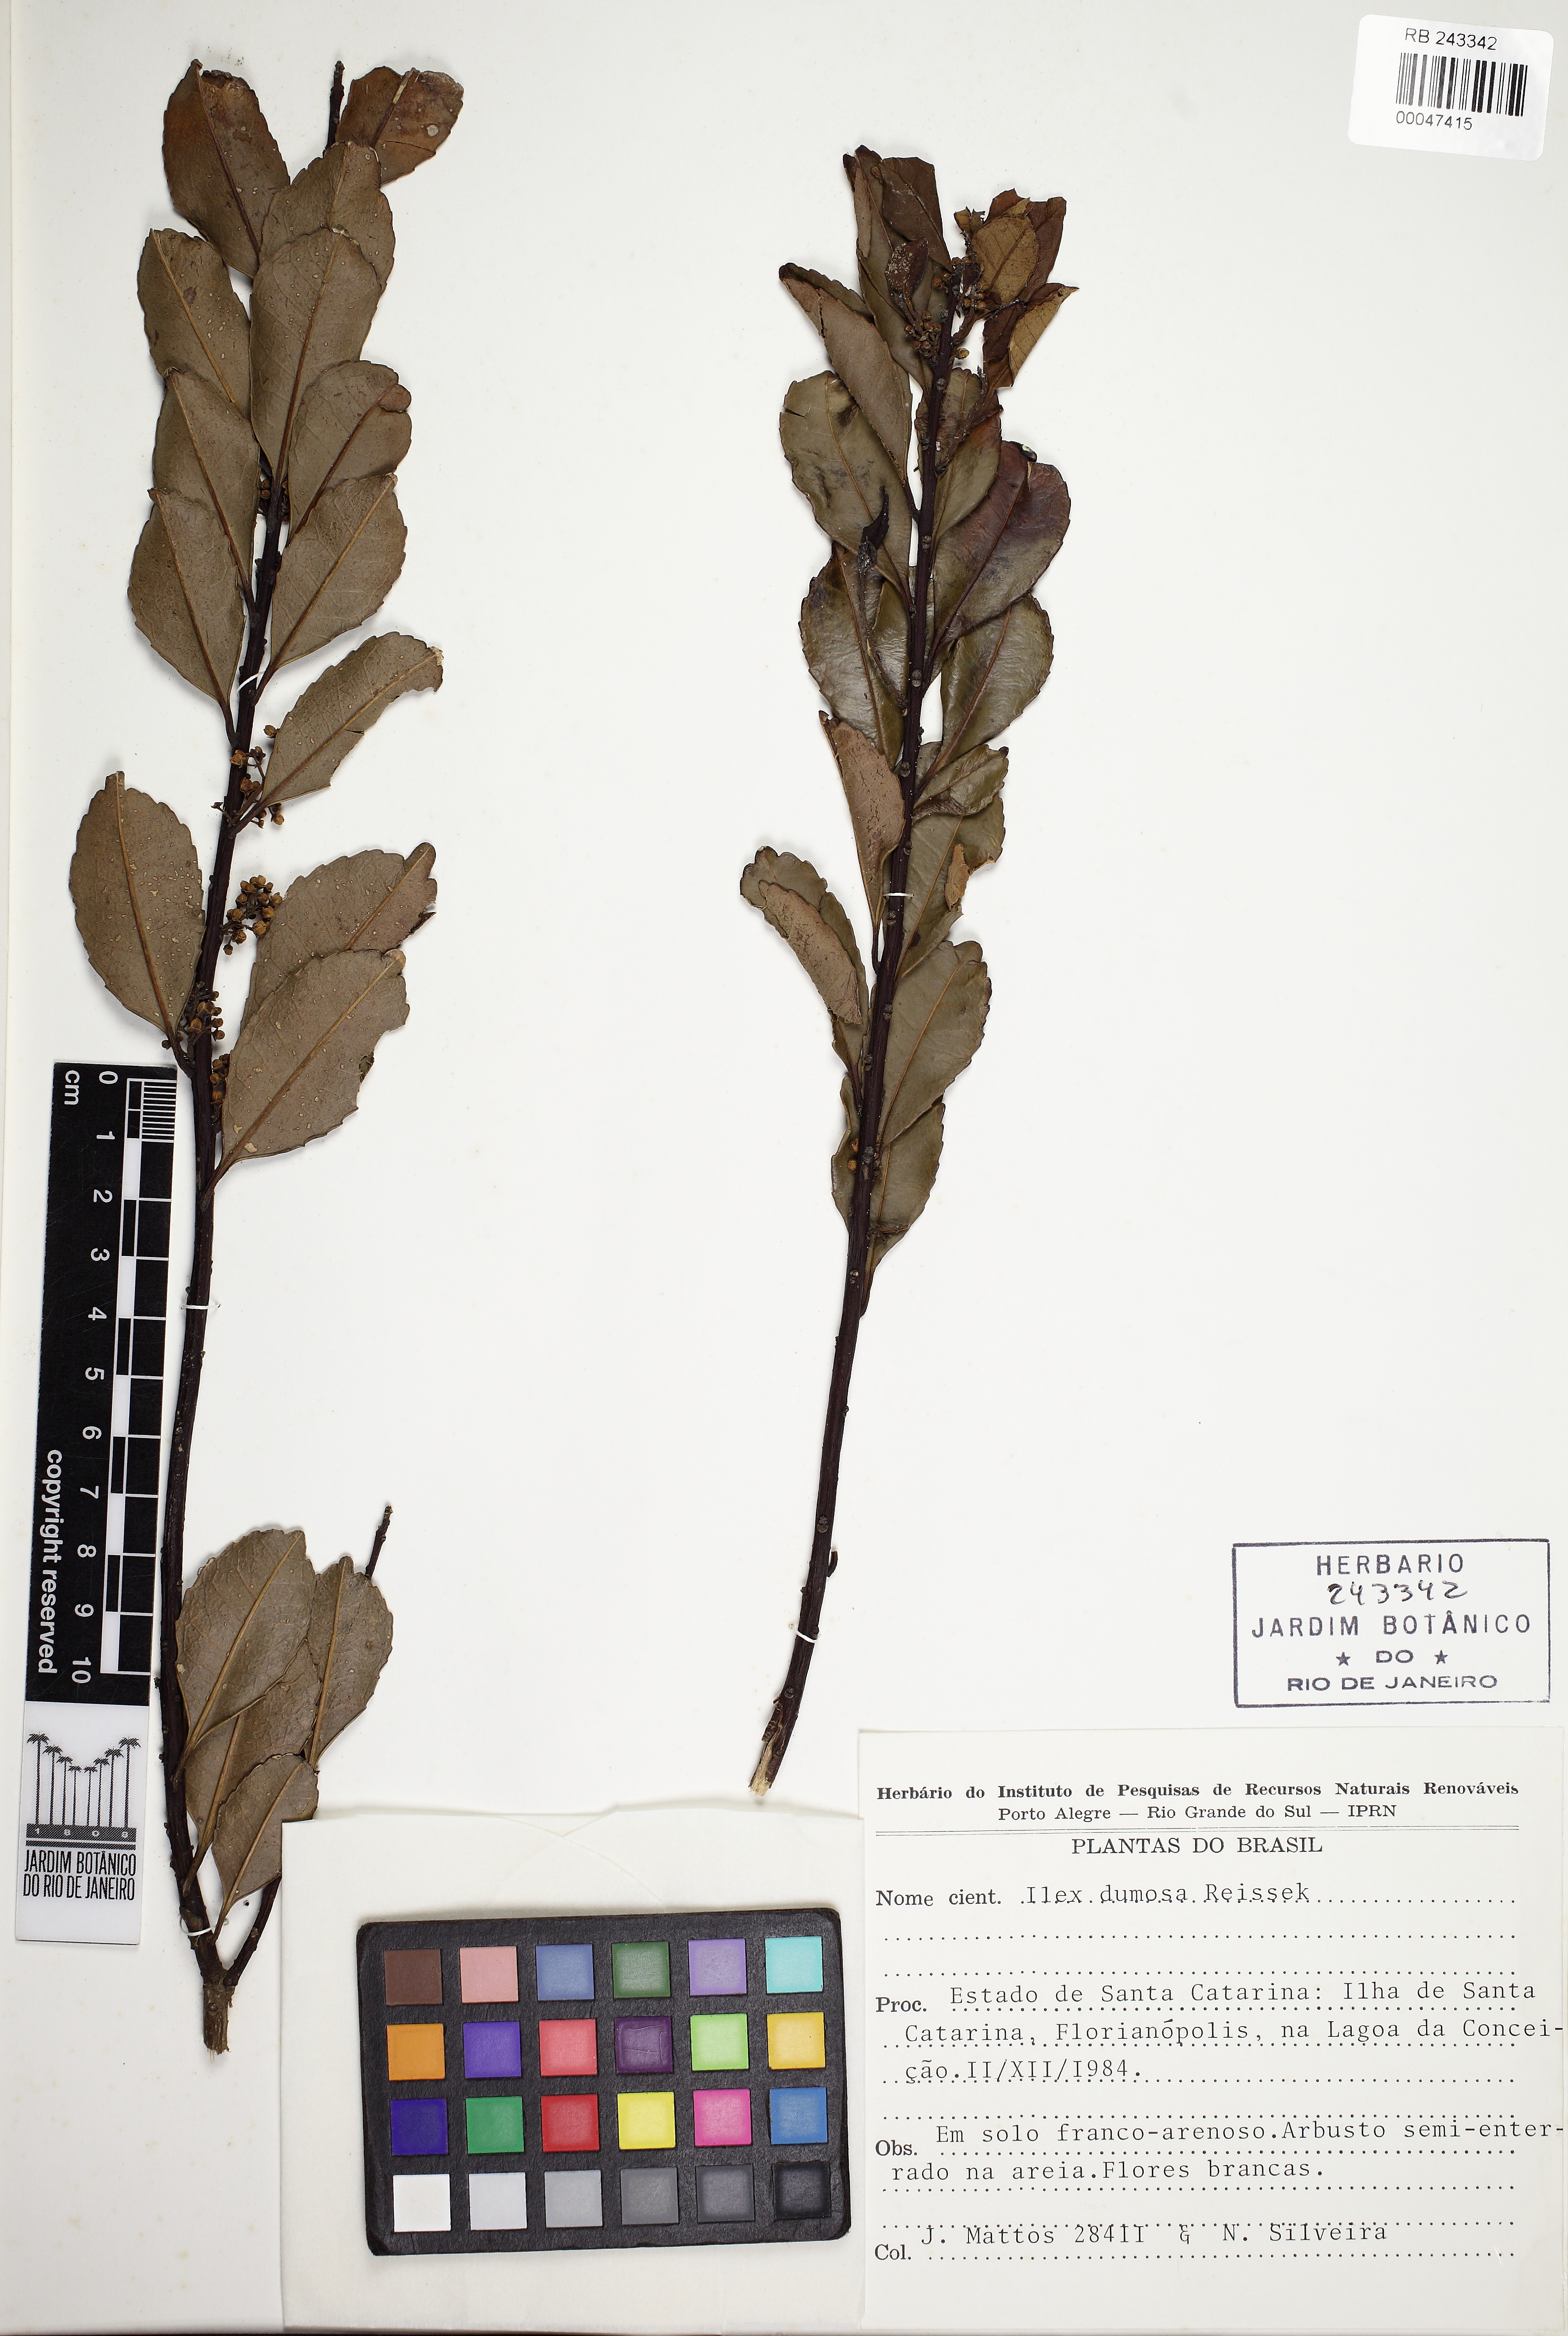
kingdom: Plantae
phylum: Tracheophyta
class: Magnoliopsida
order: Aquifoliales
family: Aquifoliaceae
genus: Ilex
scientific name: Ilex dumosa
